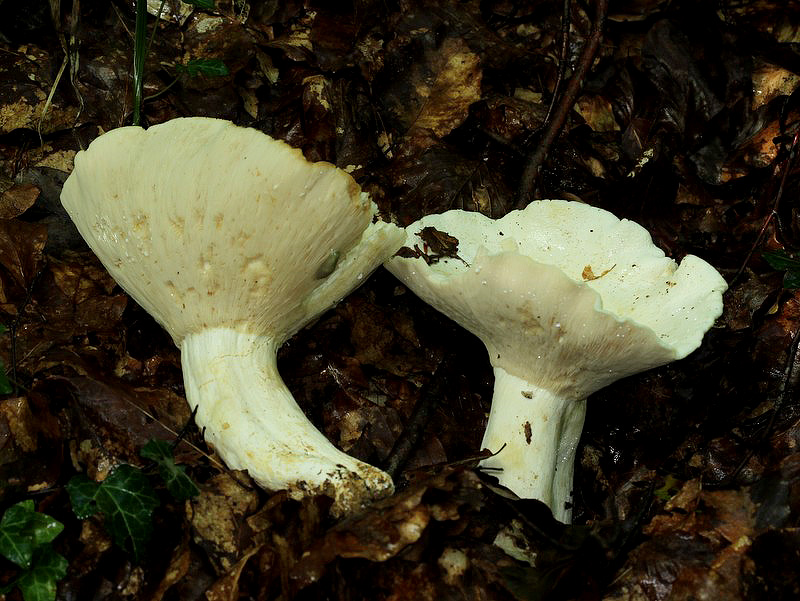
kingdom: Fungi
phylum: Basidiomycota
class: Agaricomycetes
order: Russulales
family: Russulaceae
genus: Lactifluus
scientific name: Lactifluus piperatus
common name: peber-mælkehat
